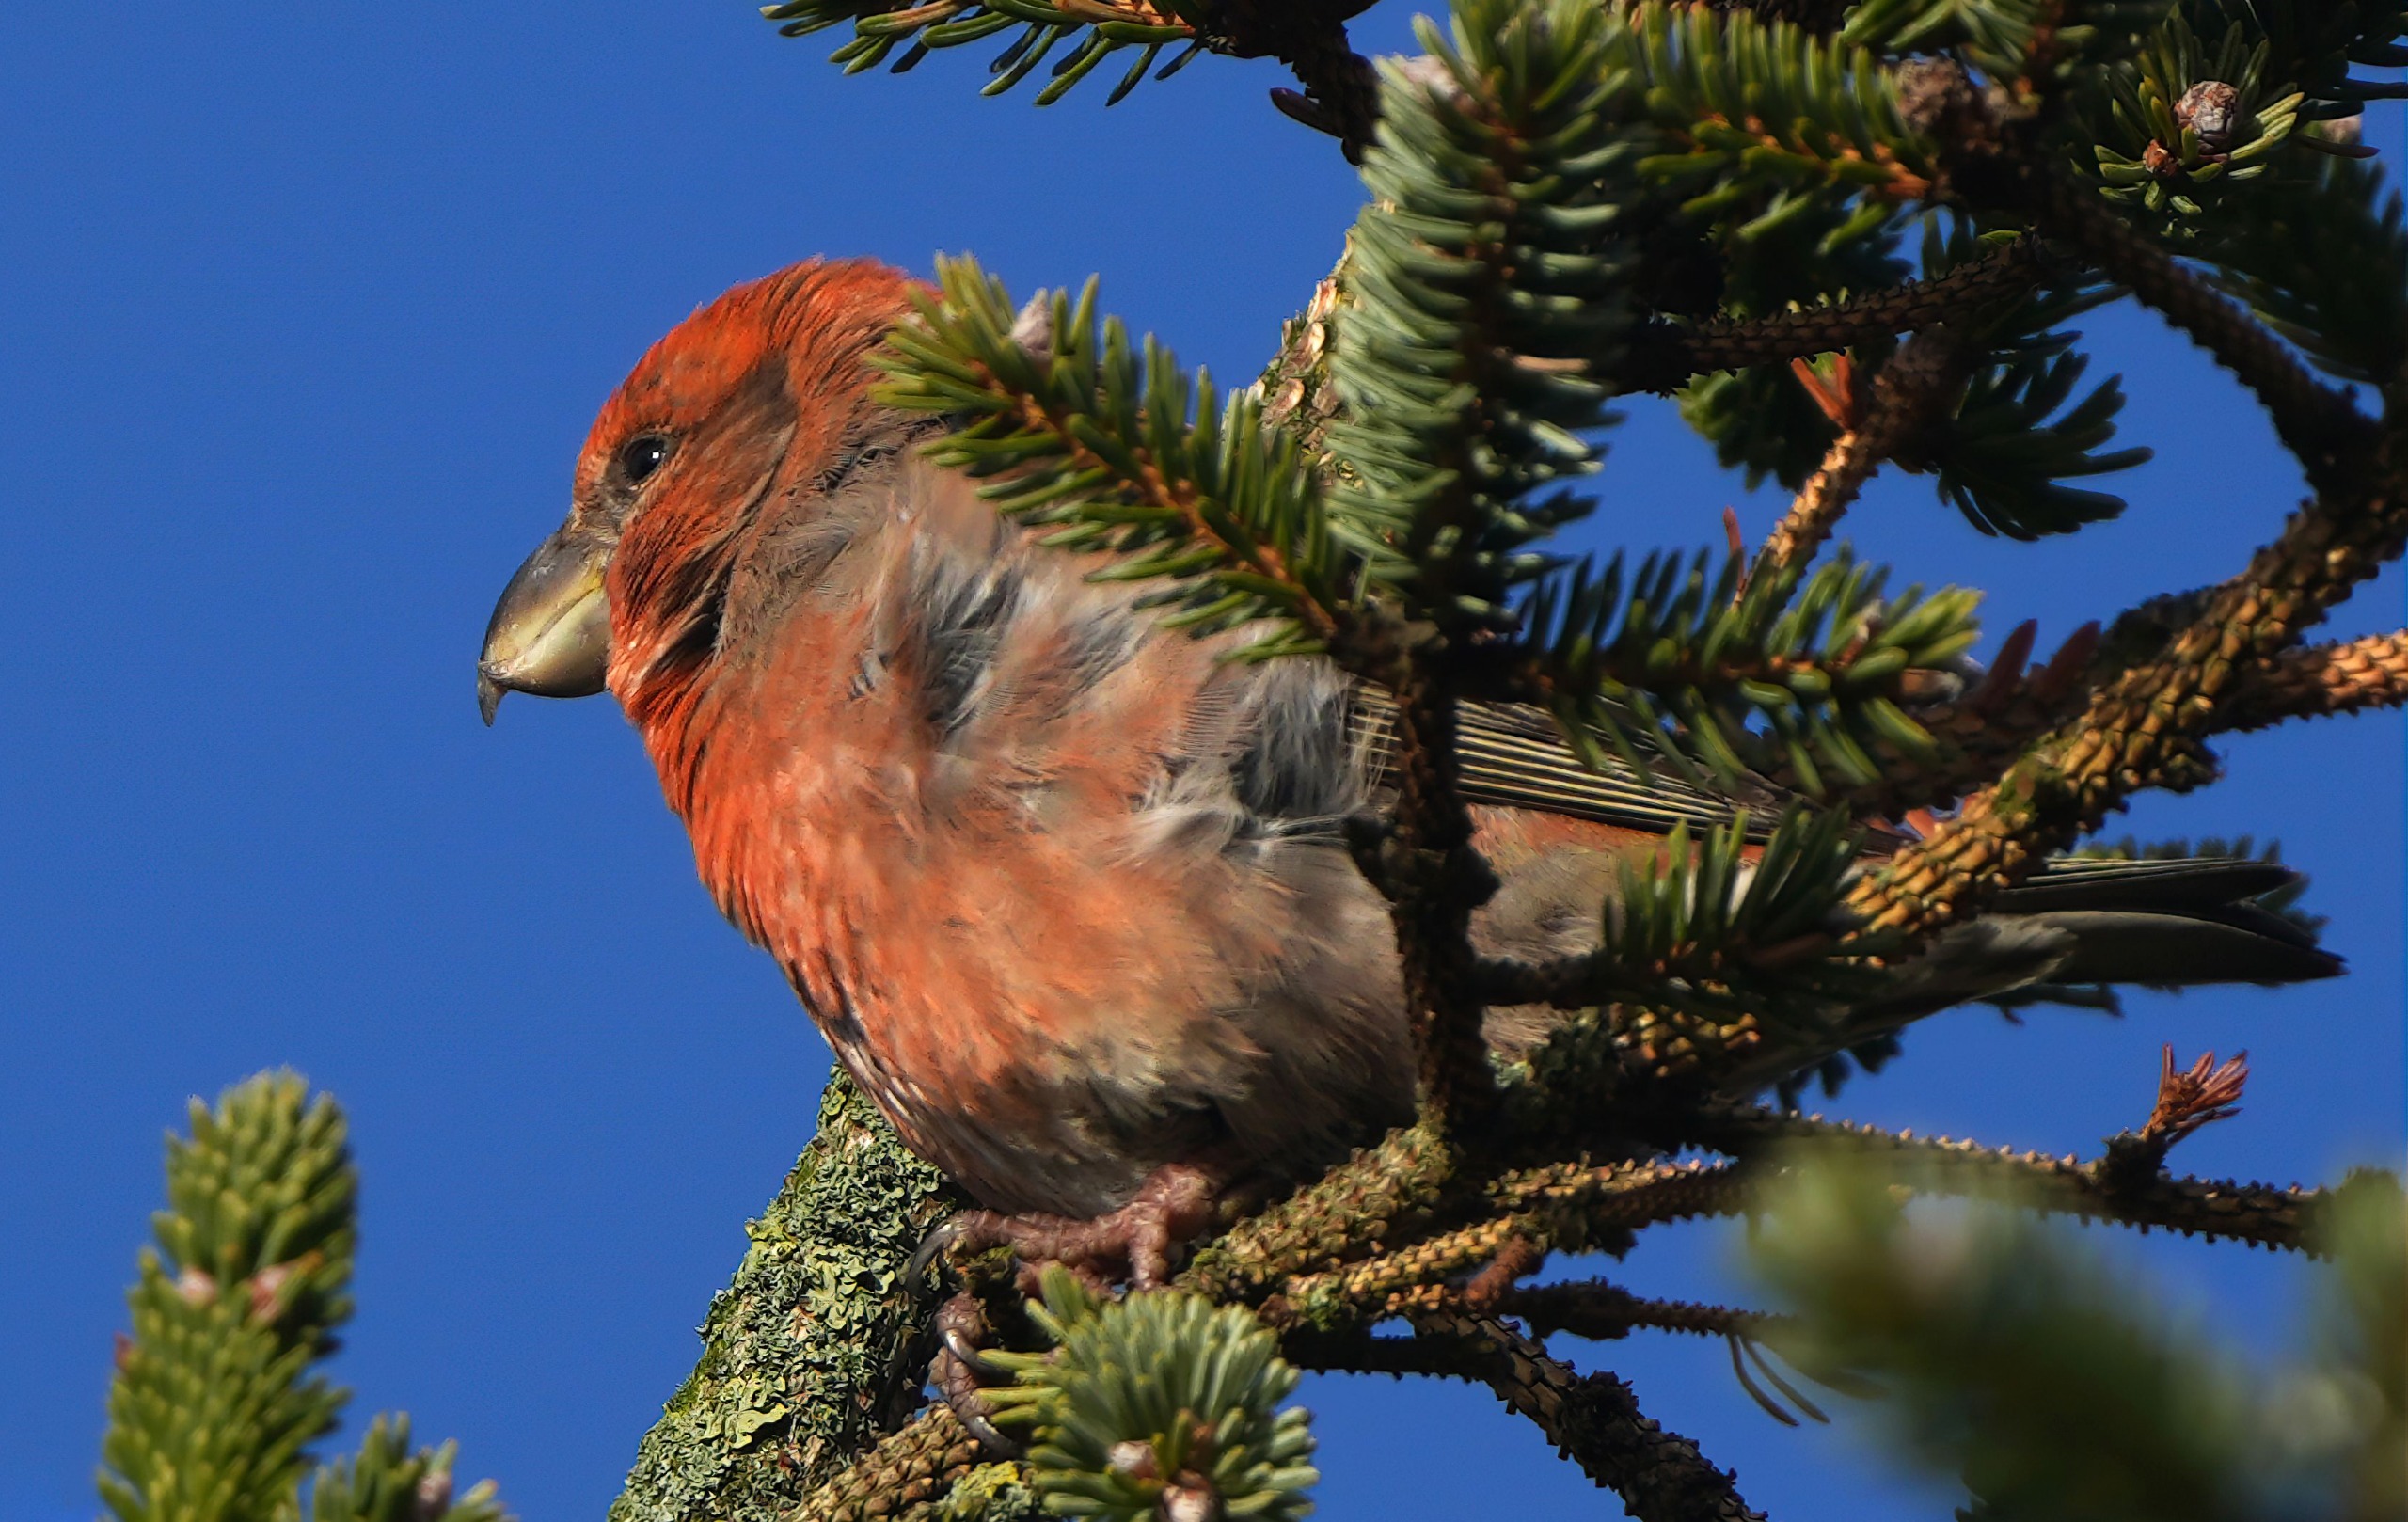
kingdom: Animalia
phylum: Chordata
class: Aves
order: Passeriformes
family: Fringillidae
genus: Loxia
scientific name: Loxia pytyopsittacus
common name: Stor korsnæb
